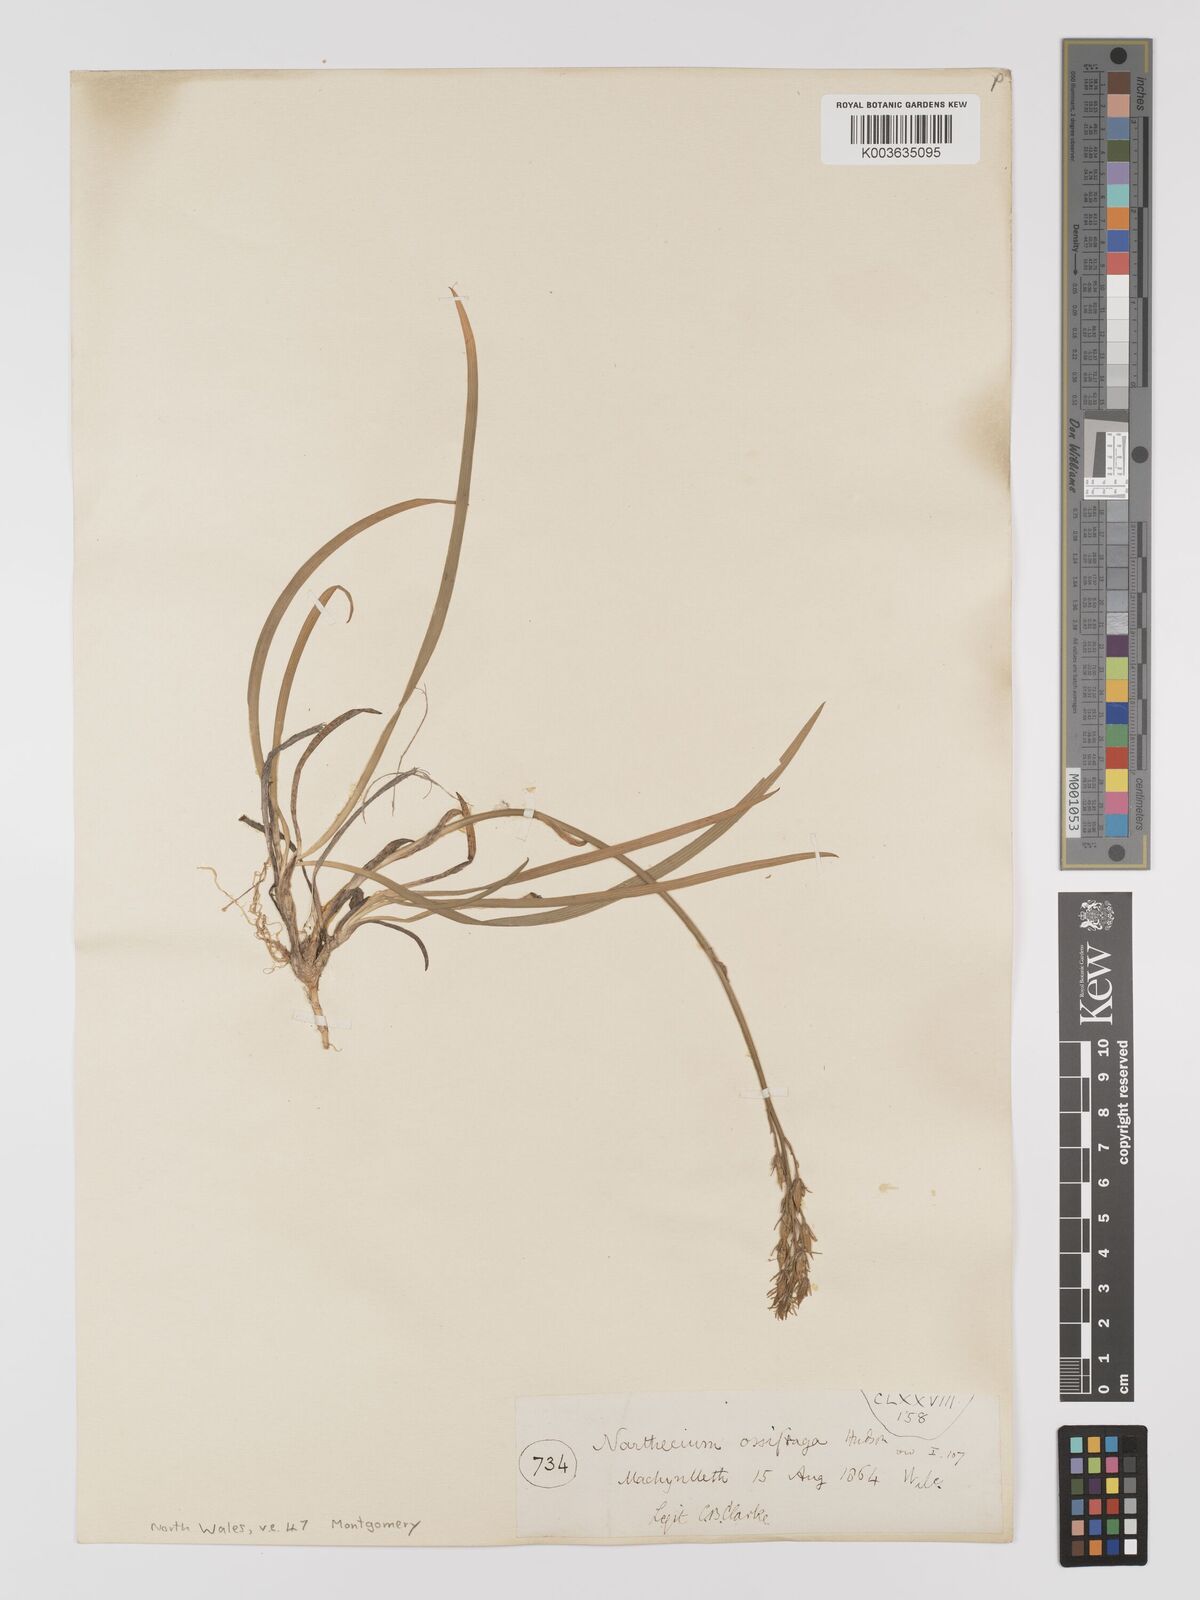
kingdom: Plantae
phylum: Tracheophyta
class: Liliopsida
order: Dioscoreales
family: Nartheciaceae
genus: Narthecium
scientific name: Narthecium
